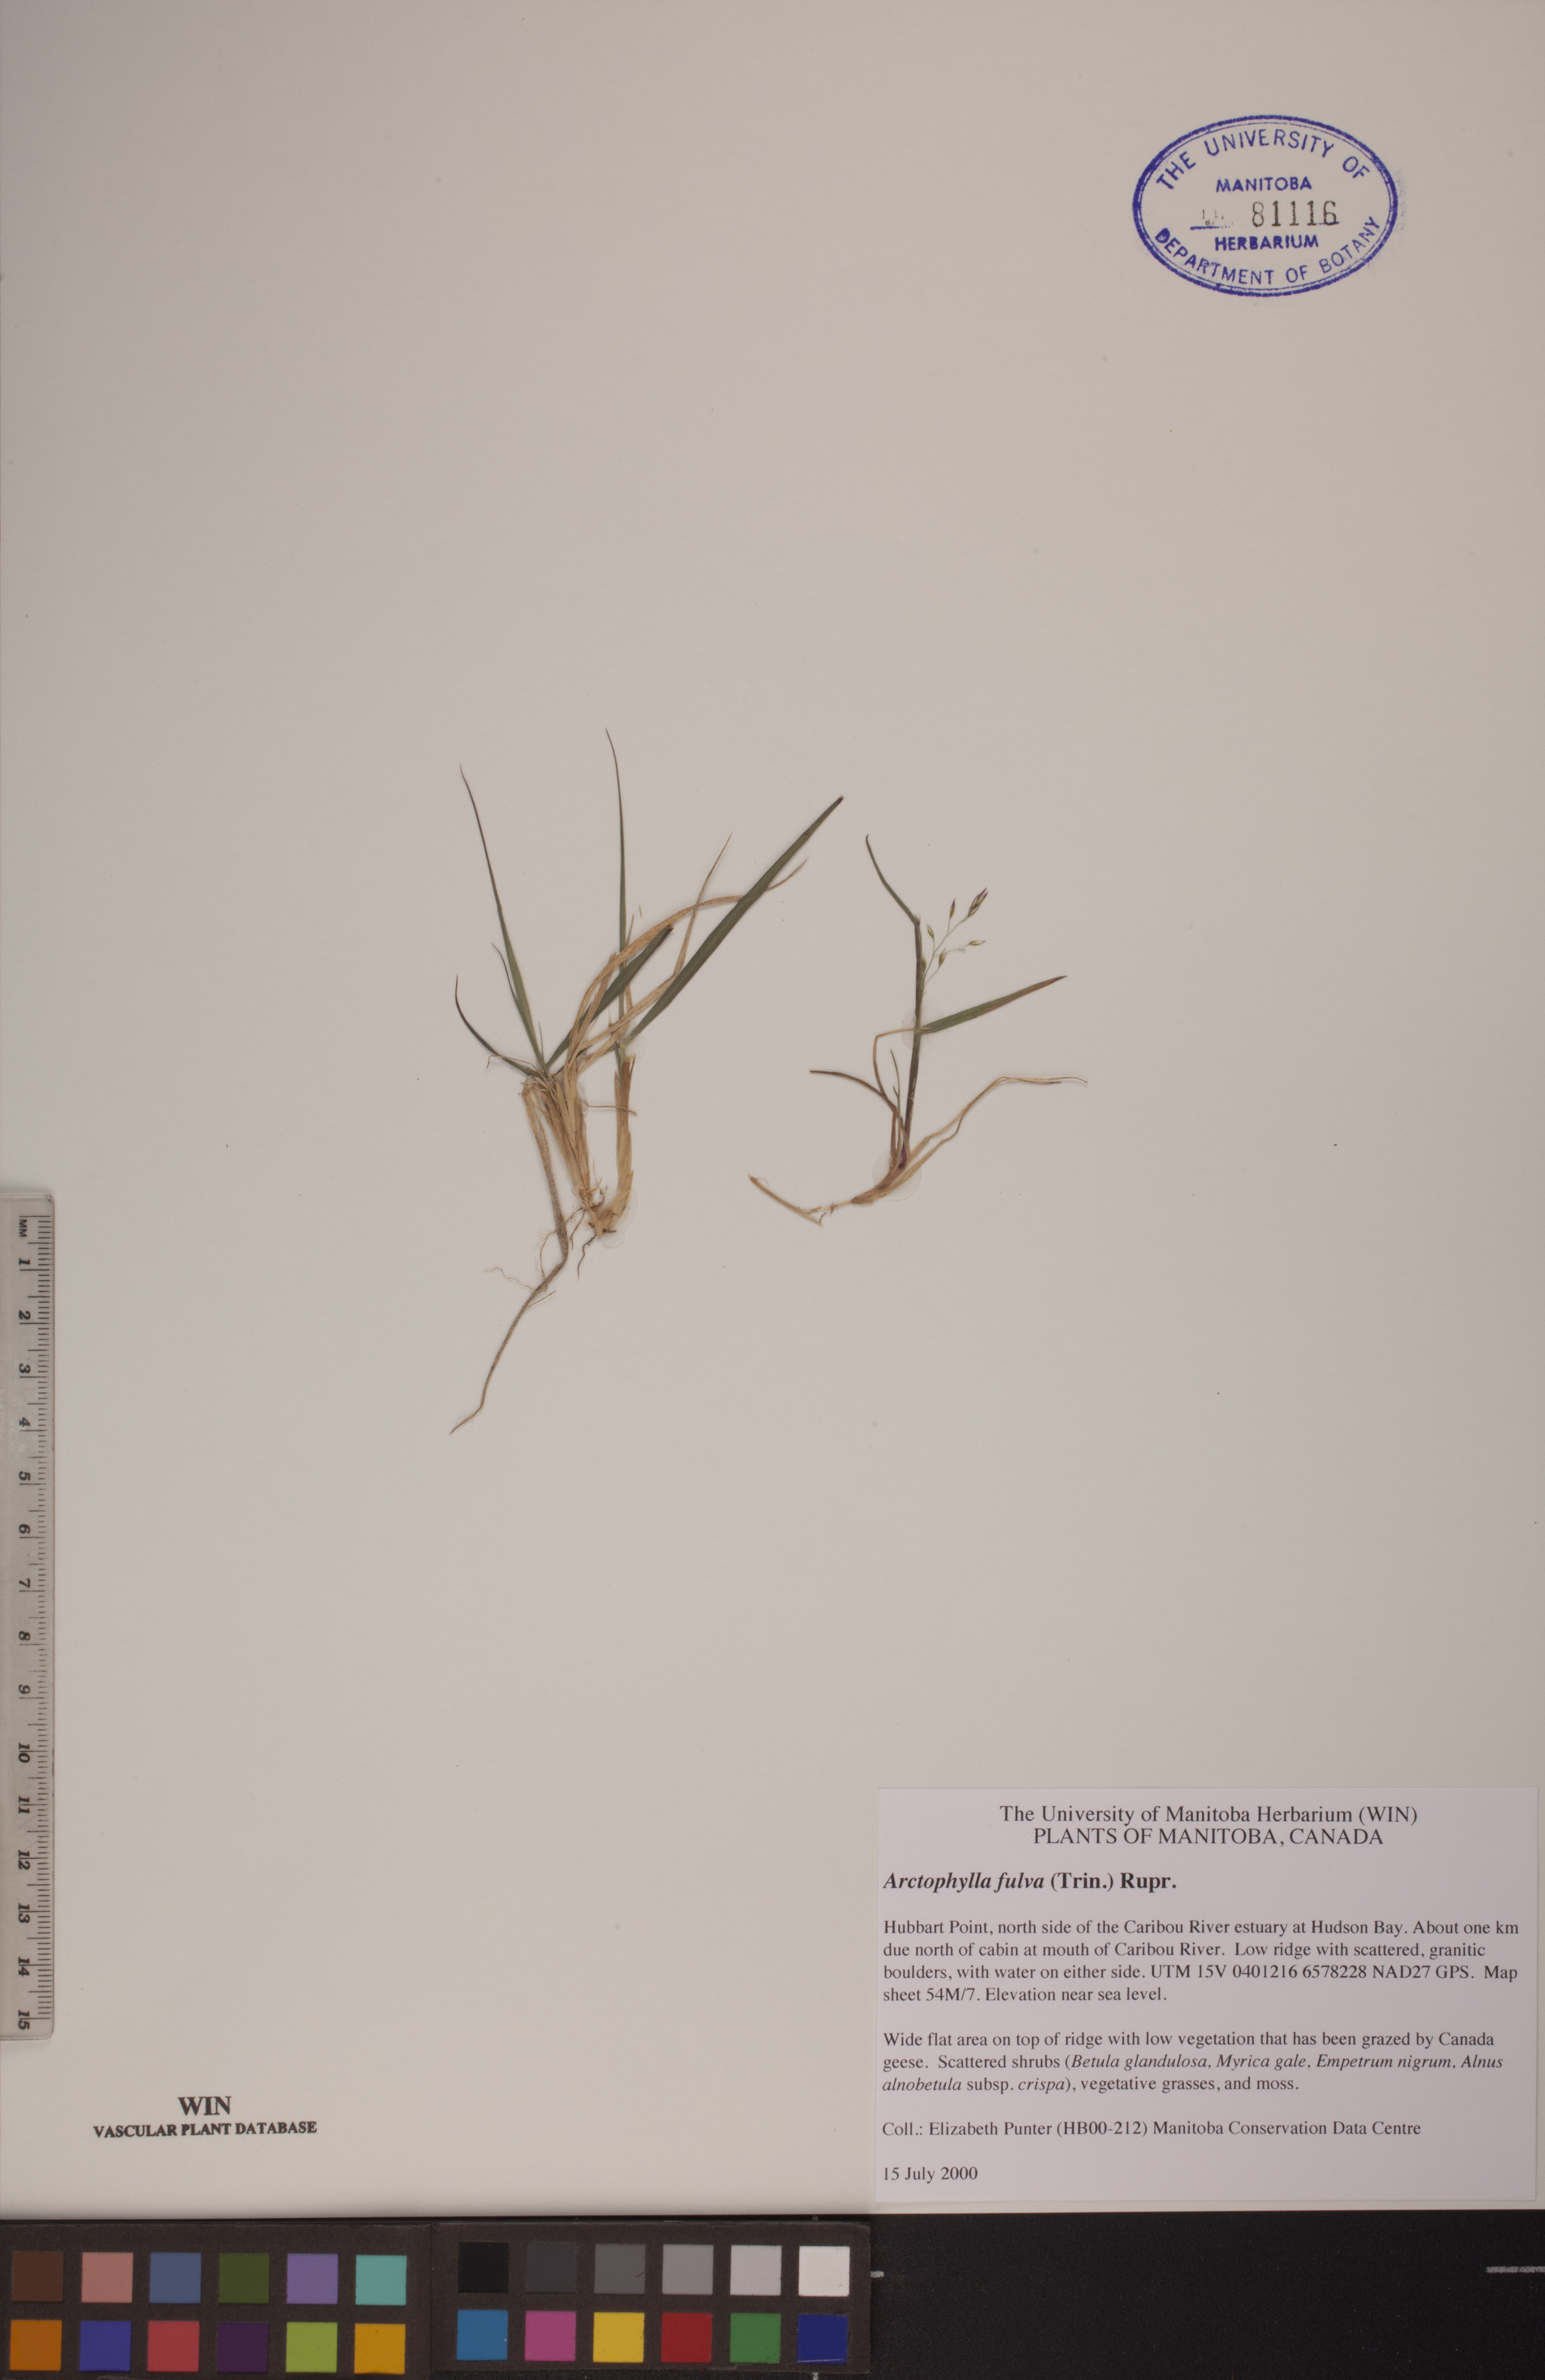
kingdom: Plantae
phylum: Tracheophyta
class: Liliopsida
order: Poales
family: Poaceae
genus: Dupontia
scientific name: Dupontia fulva
